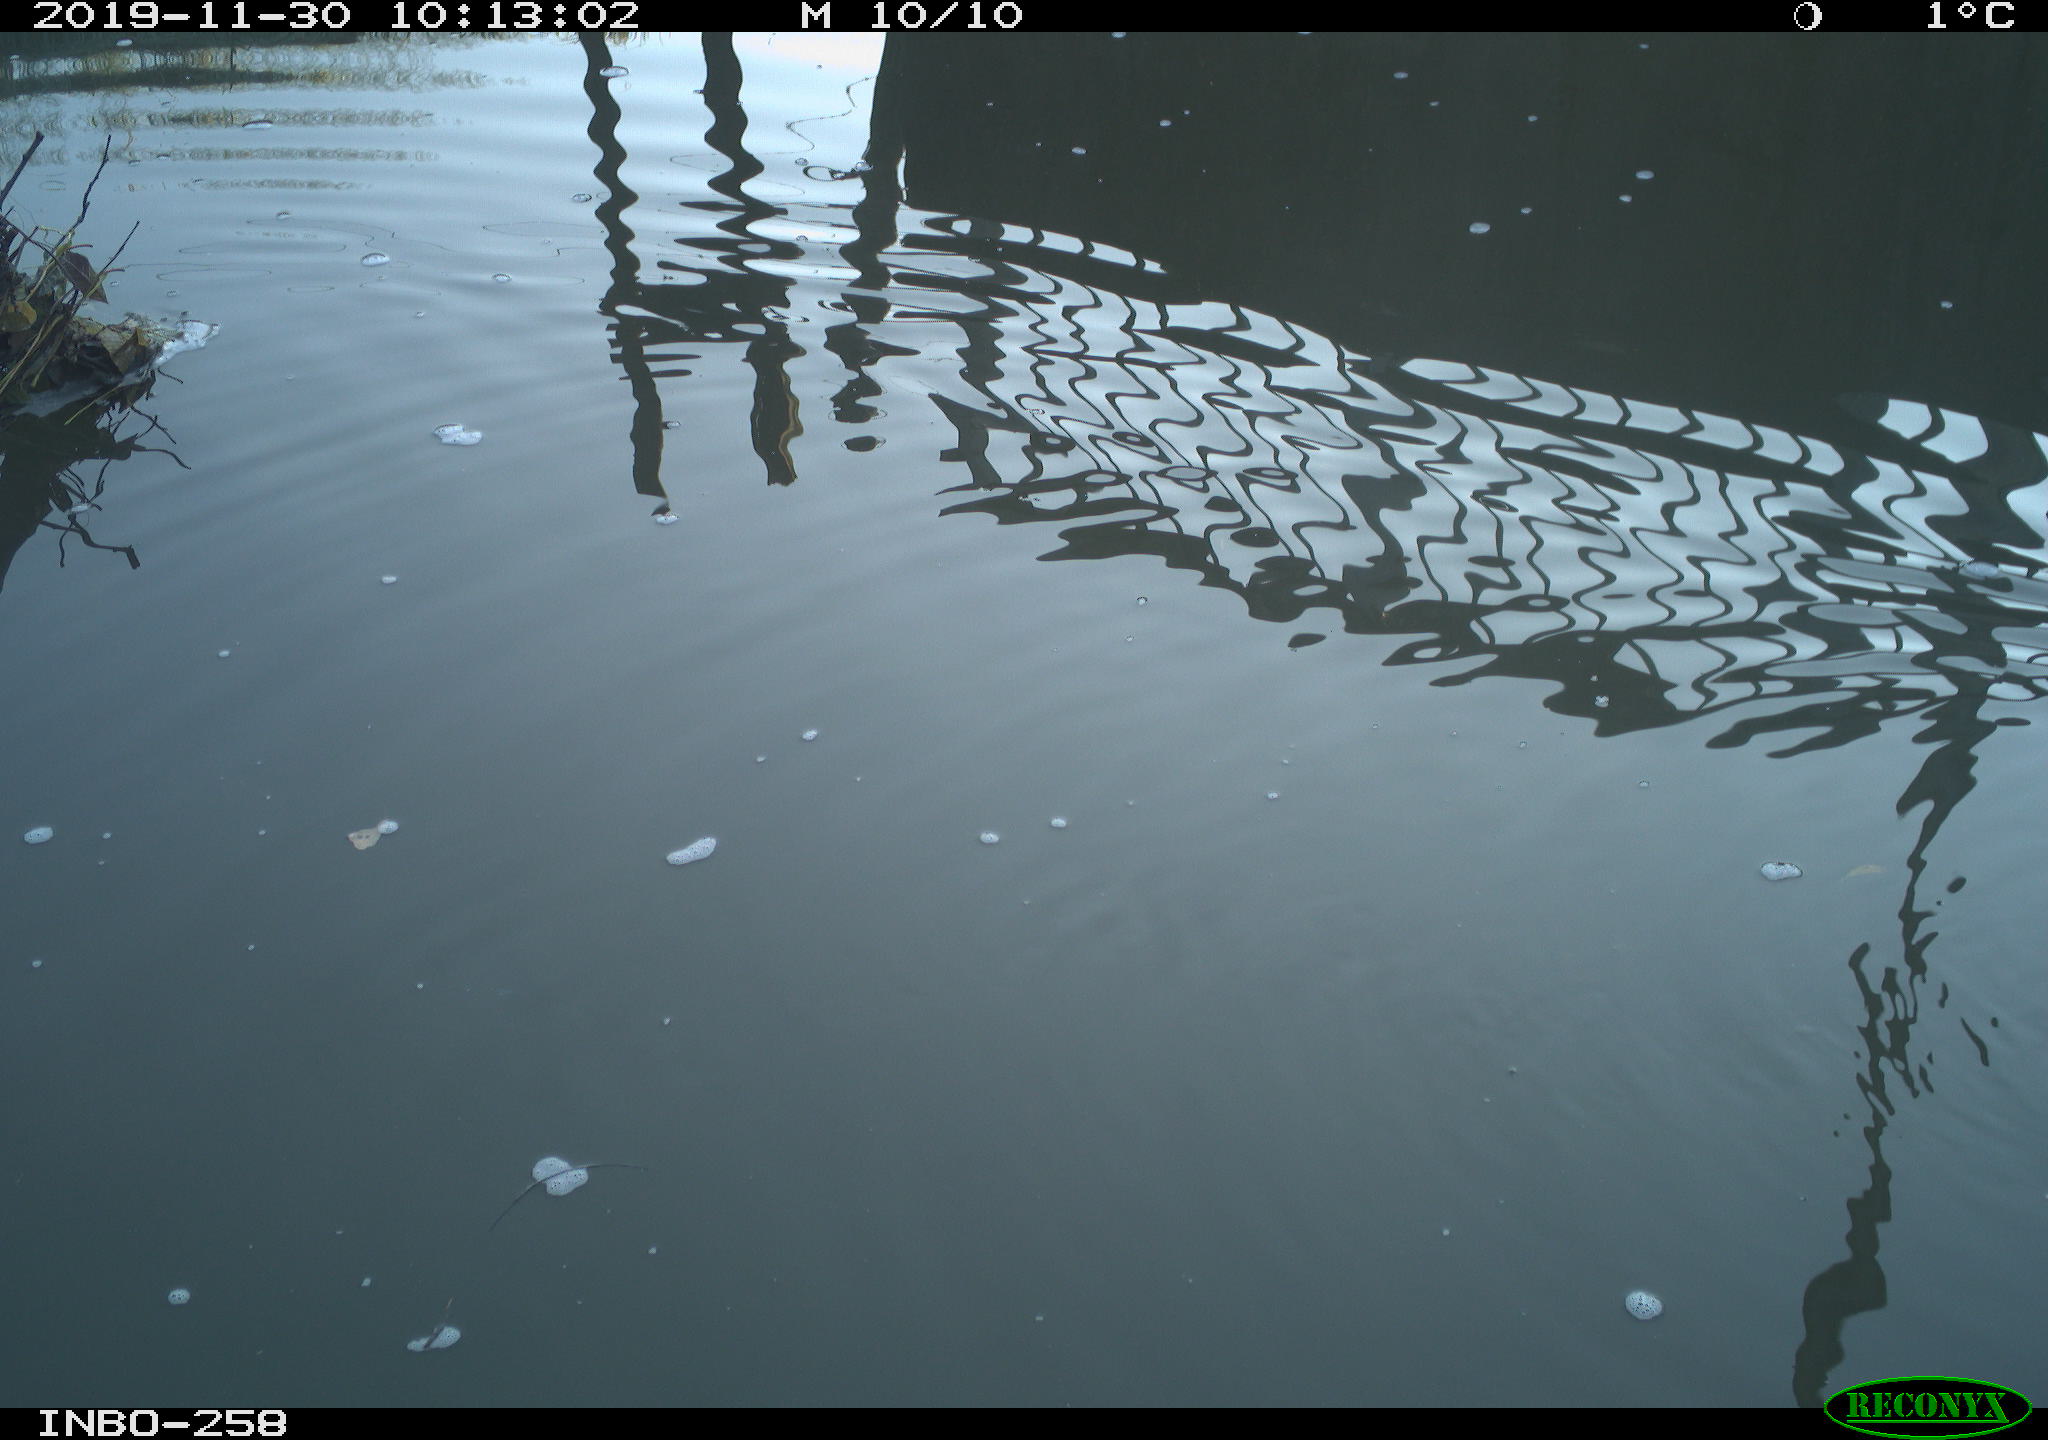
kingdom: Animalia
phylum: Chordata
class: Aves
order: Gruiformes
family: Rallidae
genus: Gallinula
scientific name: Gallinula chloropus
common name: Common moorhen
